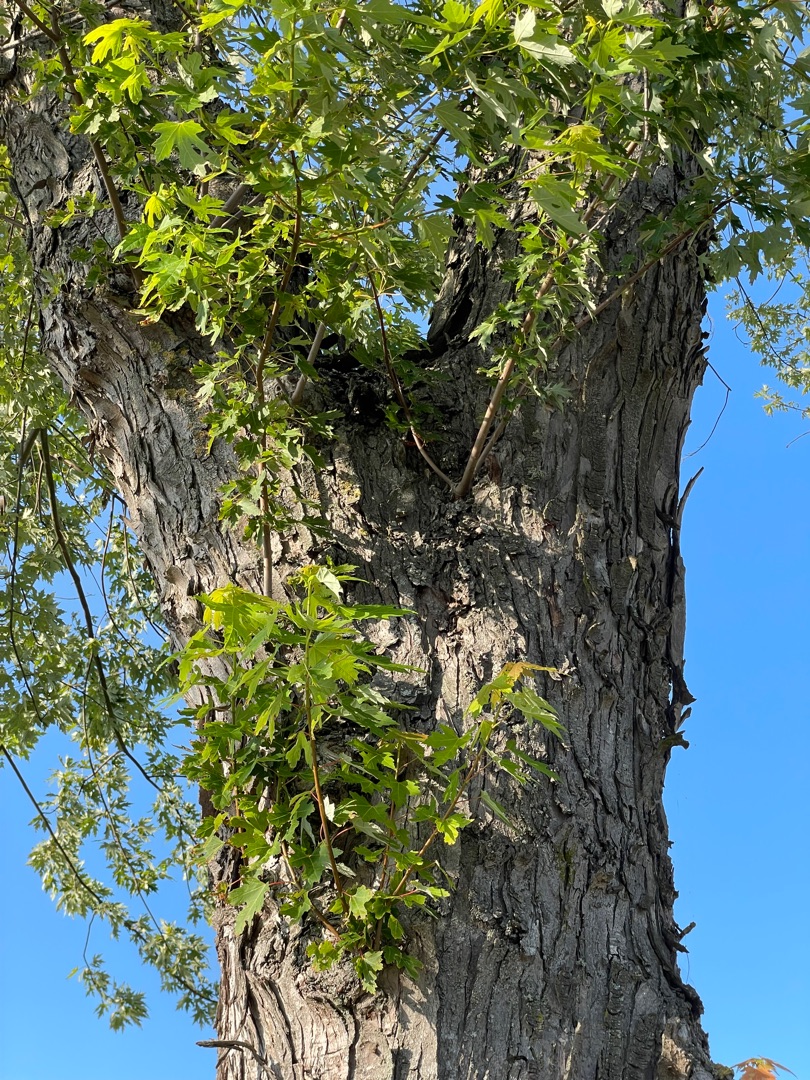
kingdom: Plantae
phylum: Tracheophyta
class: Magnoliopsida
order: Sapindales
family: Sapindaceae
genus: Acer
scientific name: Acer saccharinum
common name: Sølv-løn
